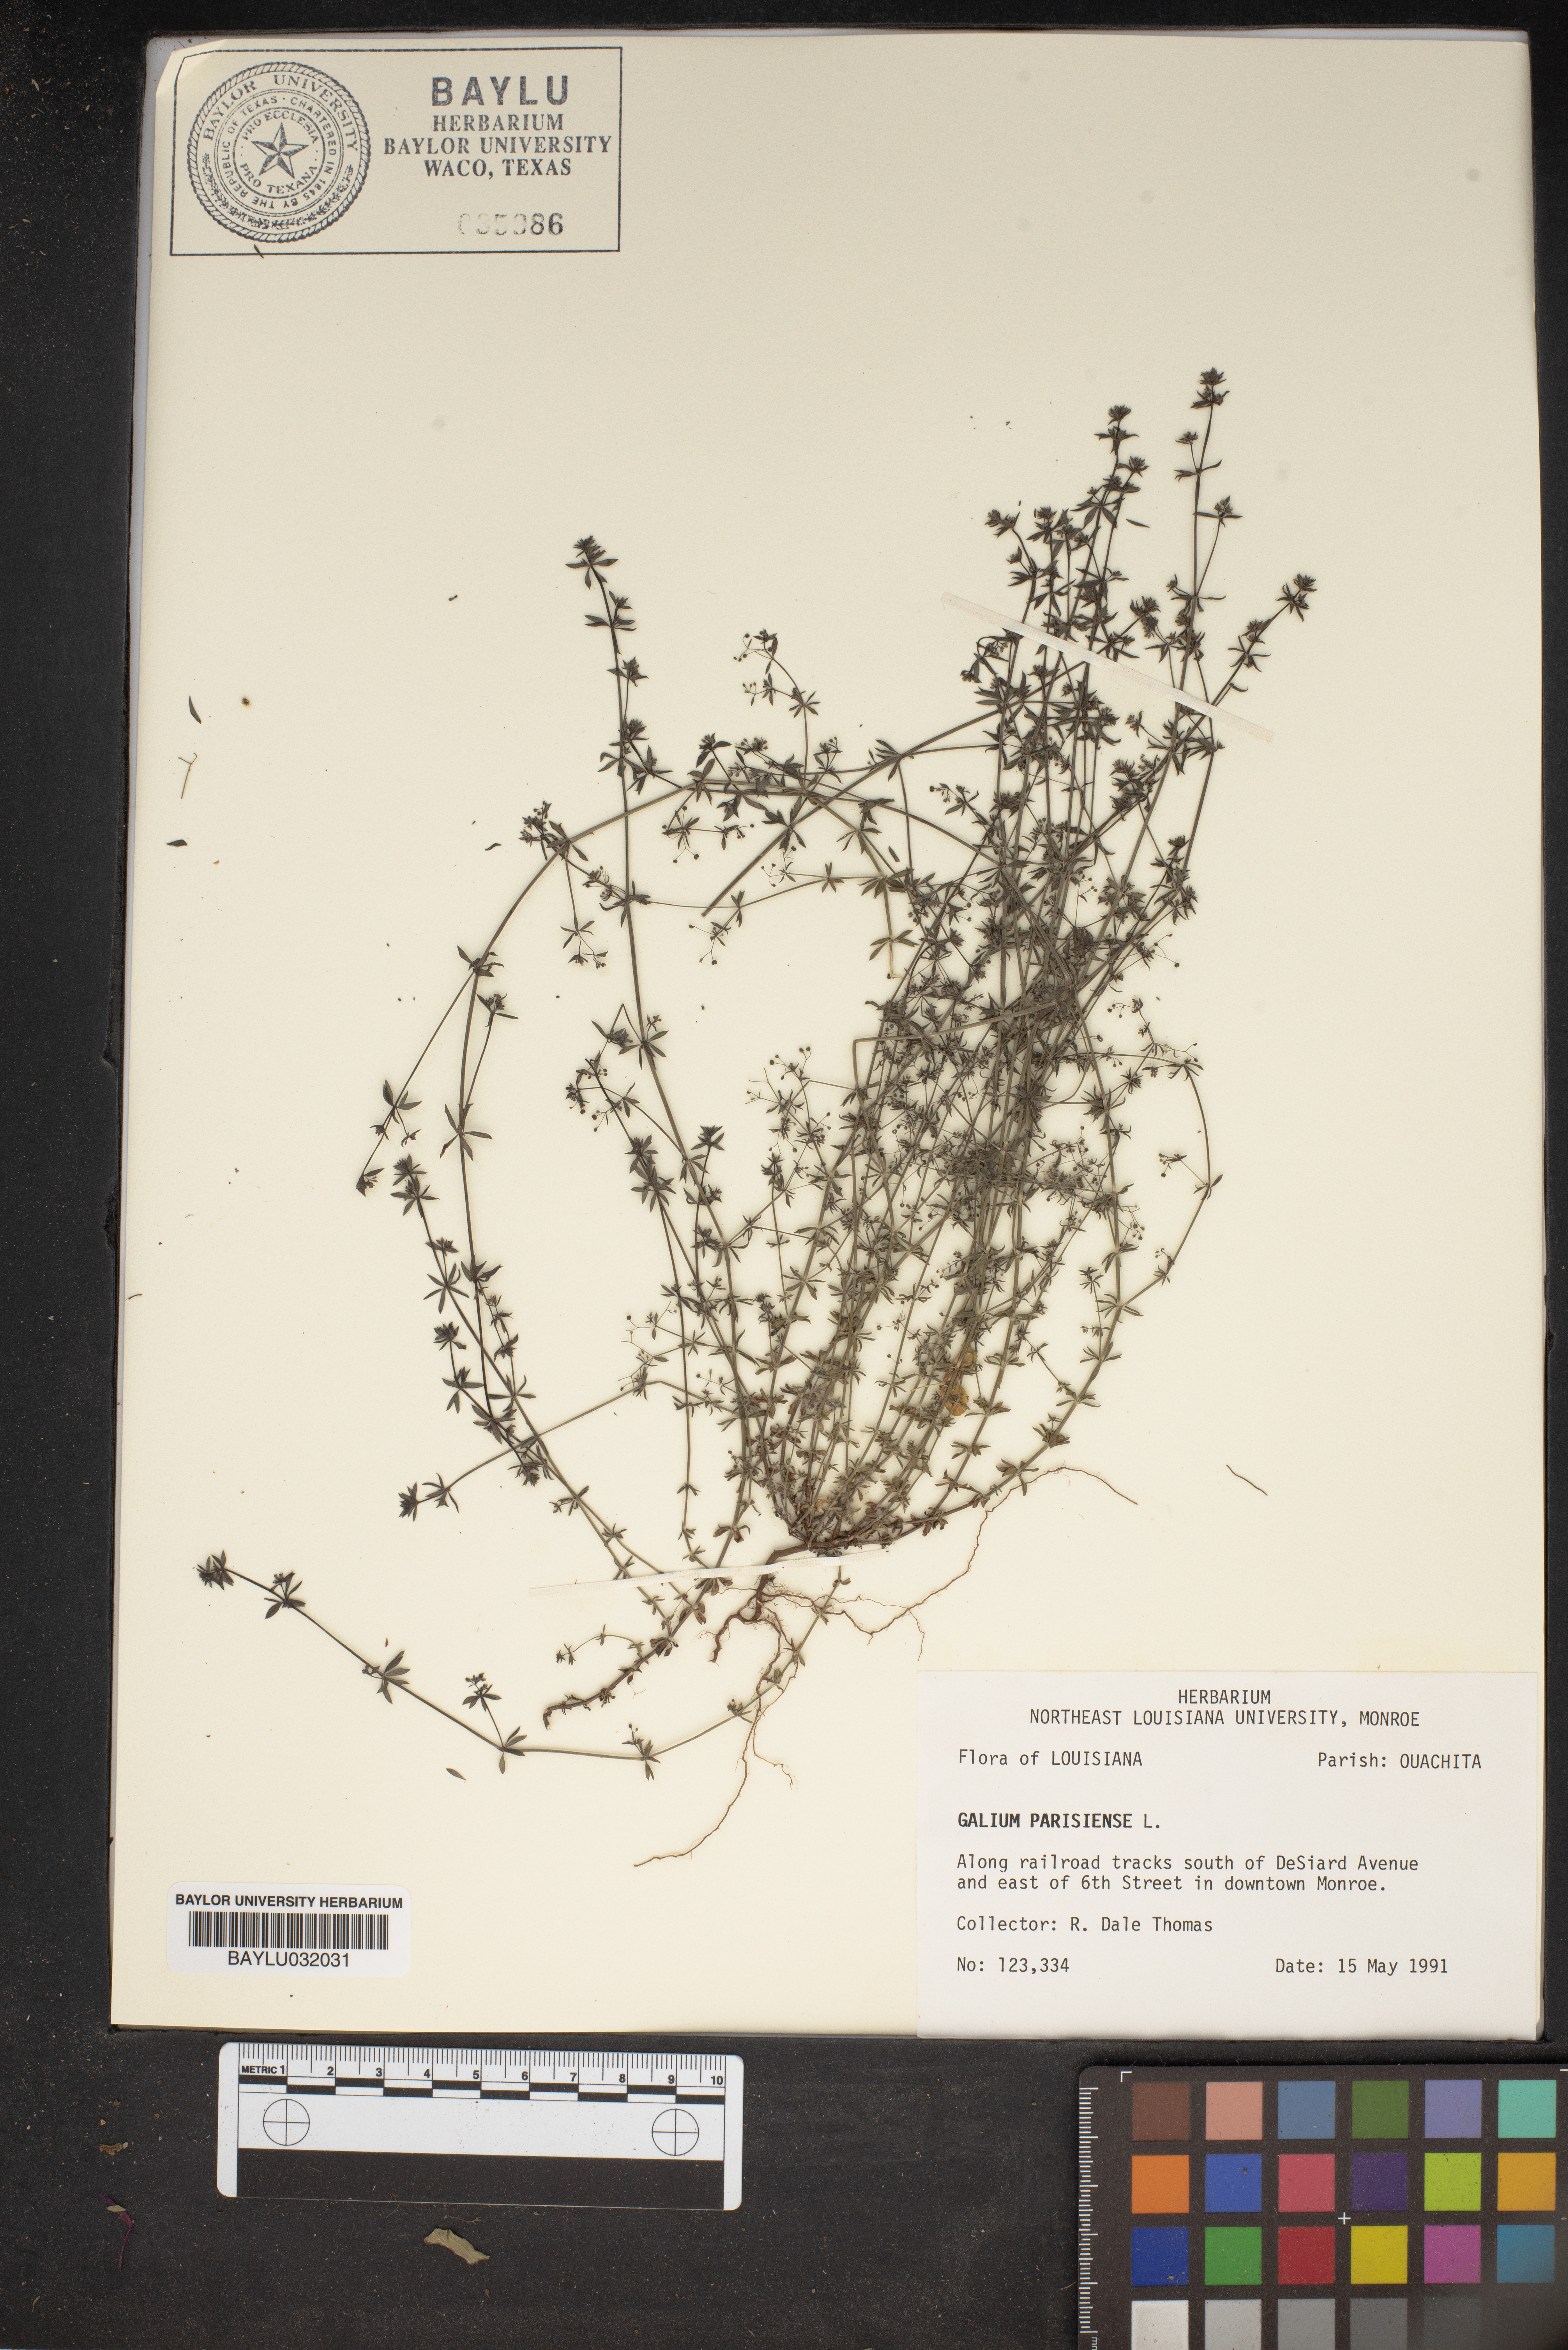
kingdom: Plantae
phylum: Tracheophyta
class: Magnoliopsida
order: Gentianales
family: Rubiaceae
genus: Galium
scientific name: Galium parisiense
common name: Wall bedstraw
